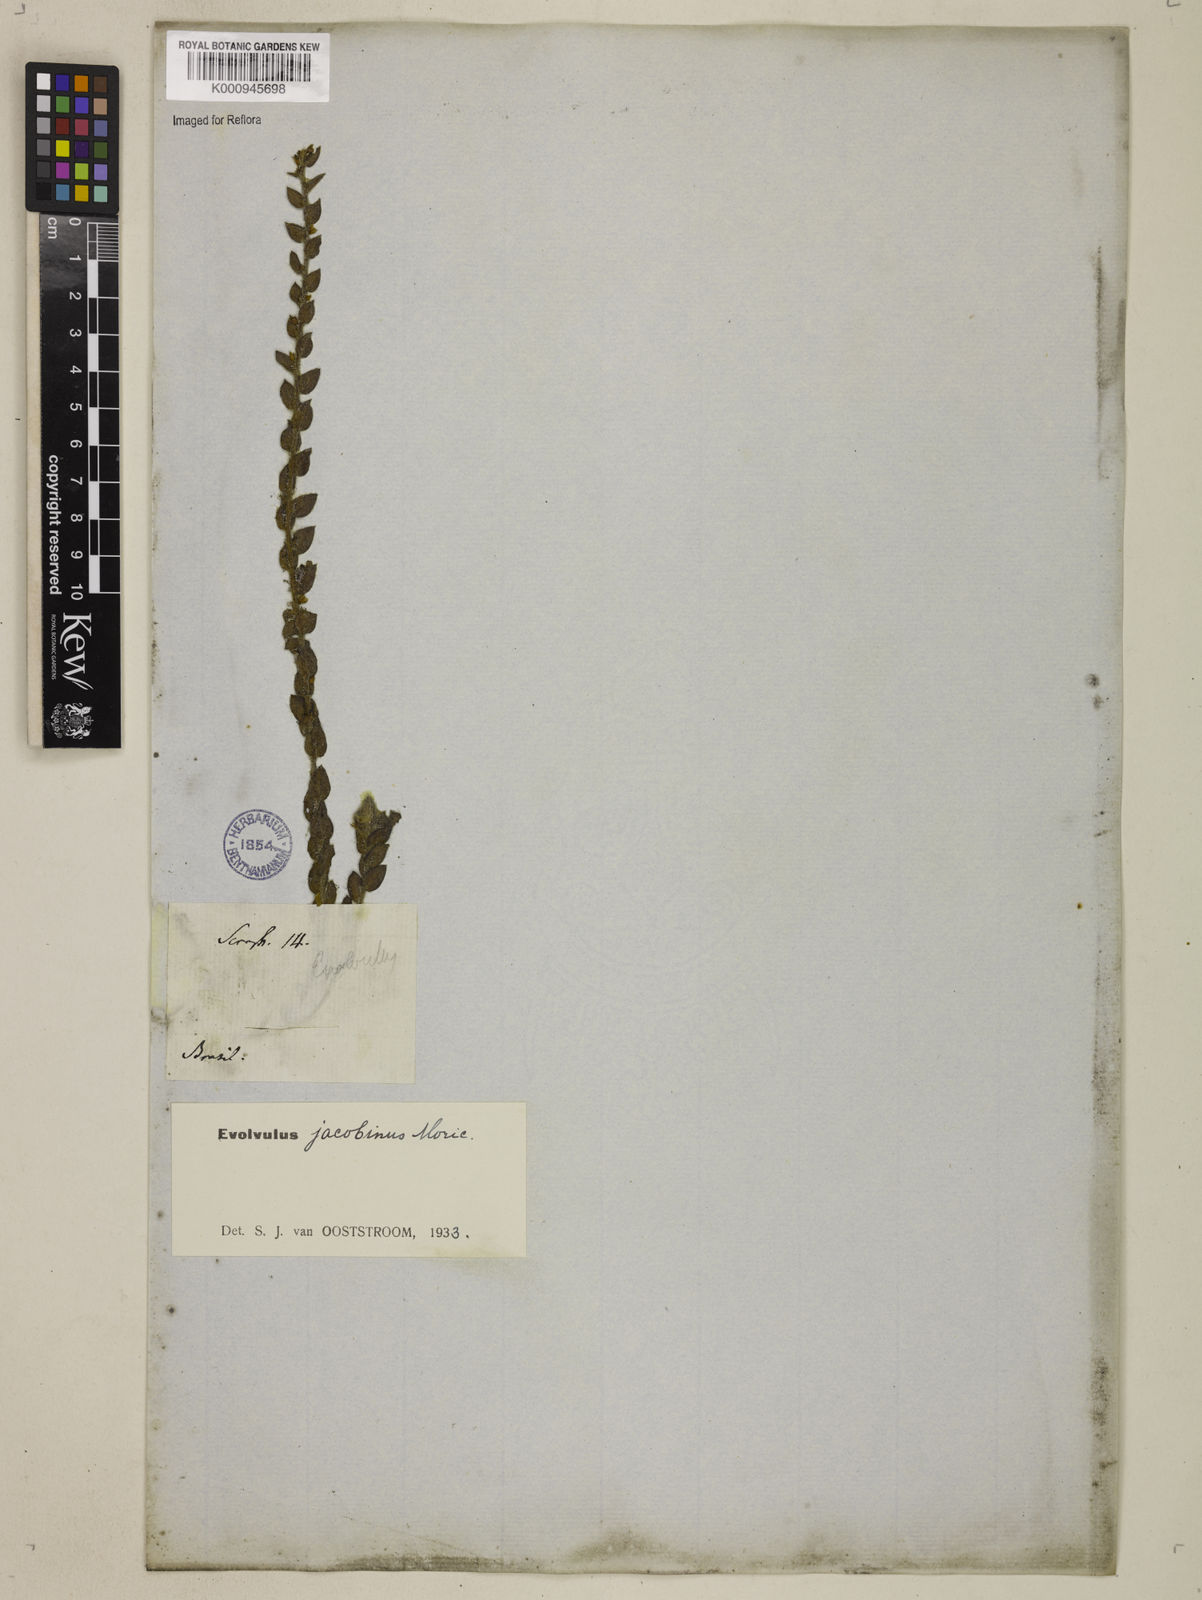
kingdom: Plantae
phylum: Tracheophyta
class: Magnoliopsida
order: Solanales
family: Convolvulaceae
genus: Evolvulus
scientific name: Evolvulus jacobinus
